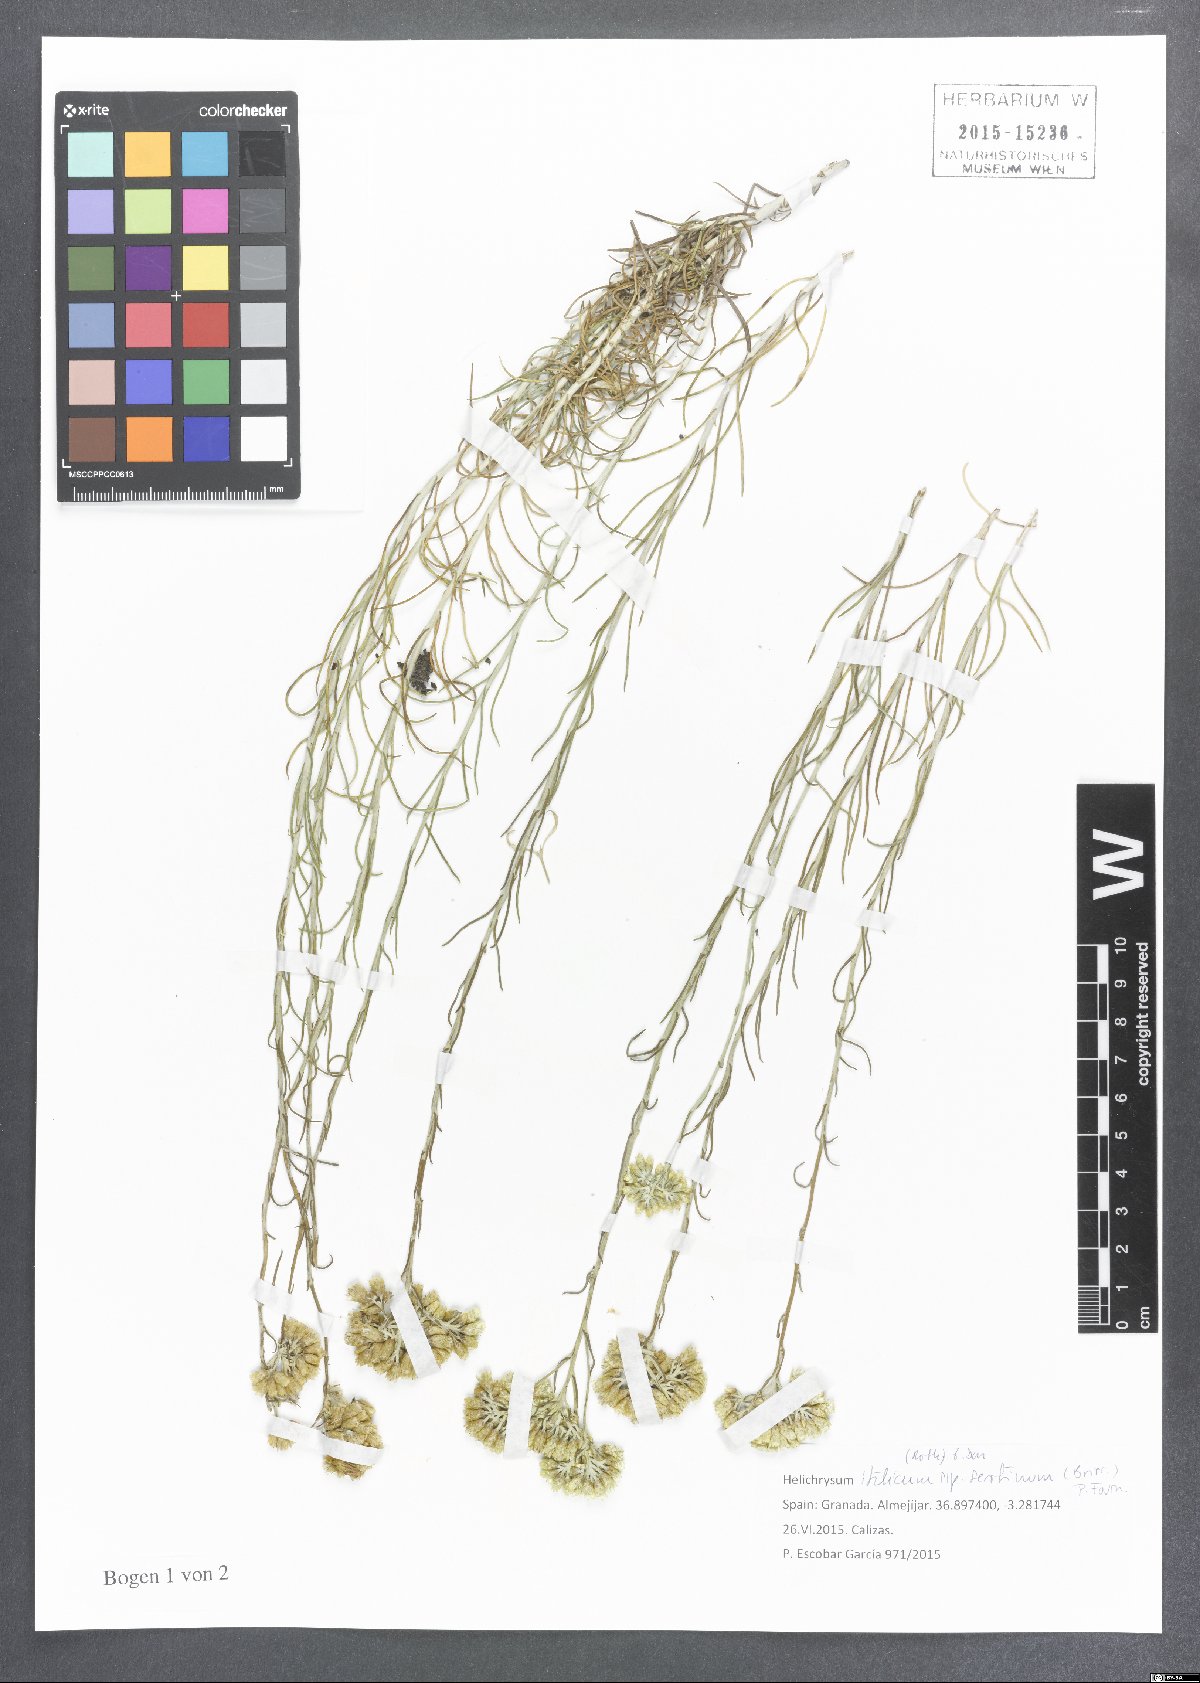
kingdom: Plantae
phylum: Tracheophyta
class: Magnoliopsida
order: Asterales
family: Asteraceae
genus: Helichrysum
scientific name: Helichrysum serotinum
